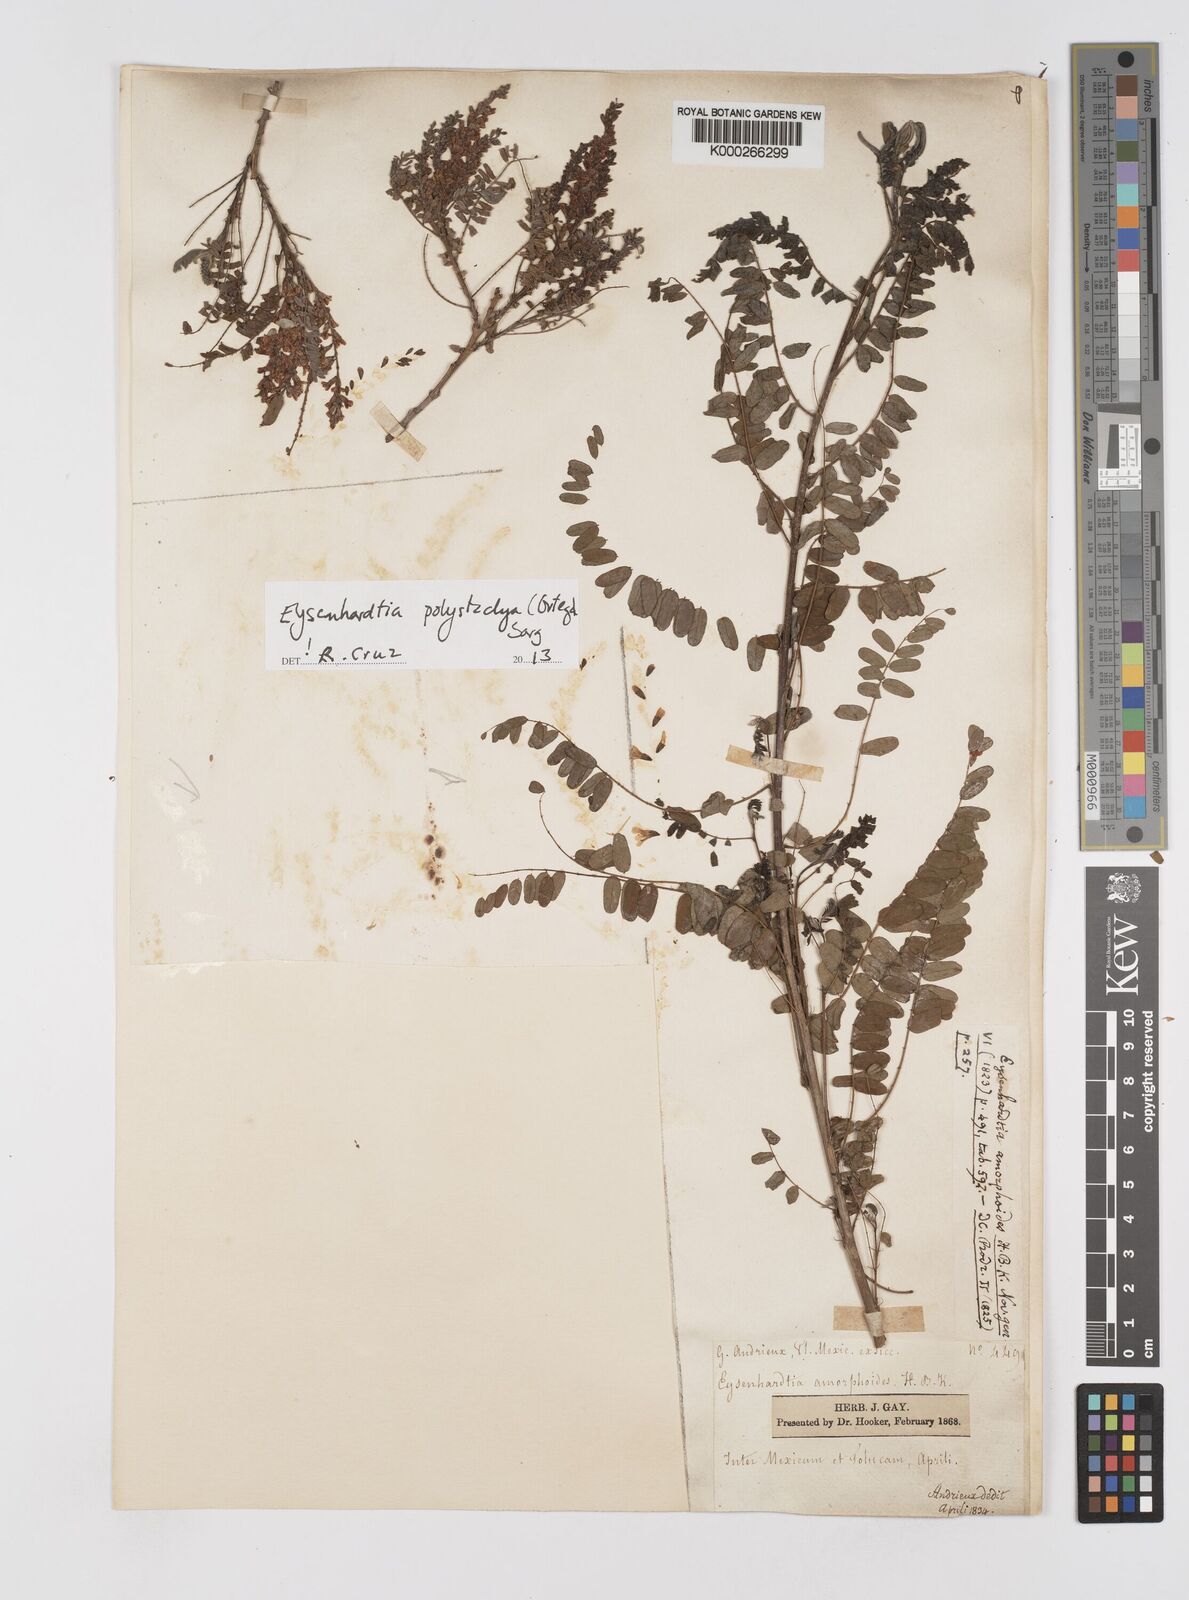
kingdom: Plantae
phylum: Tracheophyta
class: Magnoliopsida
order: Fabales
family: Fabaceae
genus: Eysenhardtia
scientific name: Eysenhardtia polystachya
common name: Kidneywood
